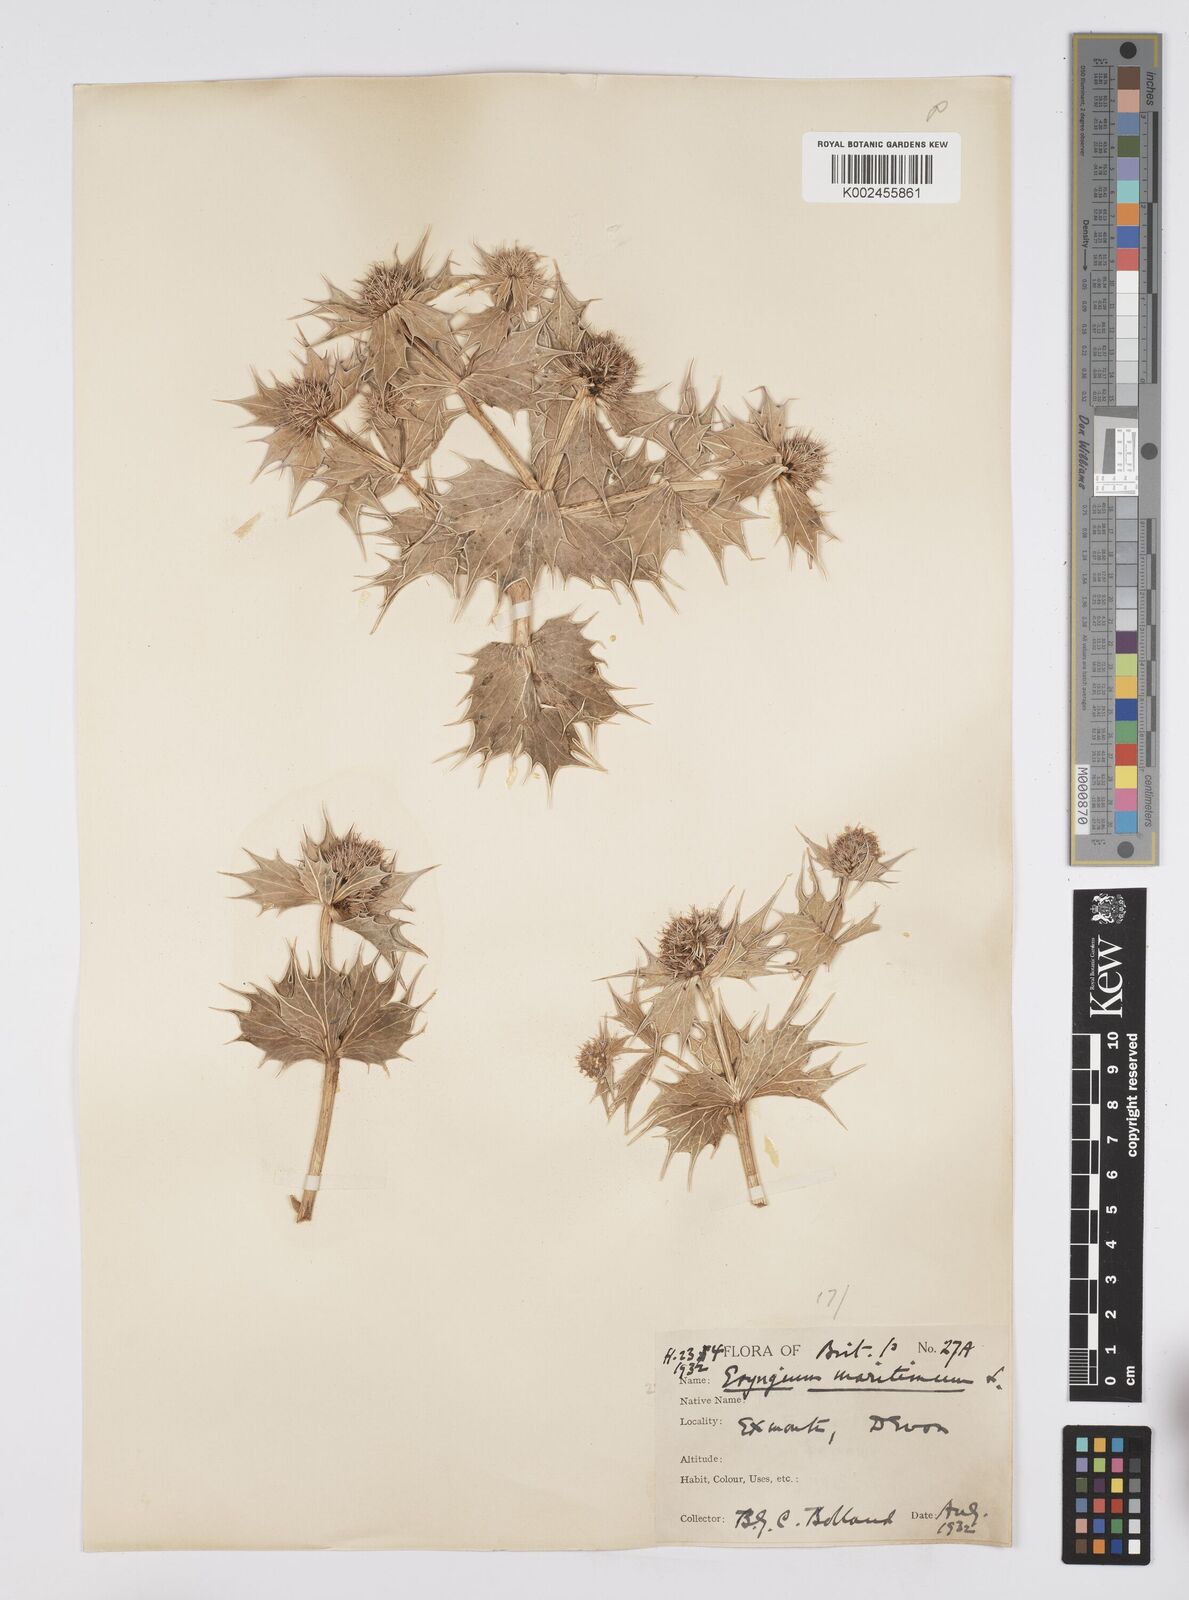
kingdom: Plantae
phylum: Tracheophyta
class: Magnoliopsida
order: Apiales
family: Apiaceae
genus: Eryngium
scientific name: Eryngium maritimum
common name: Sea-holly
